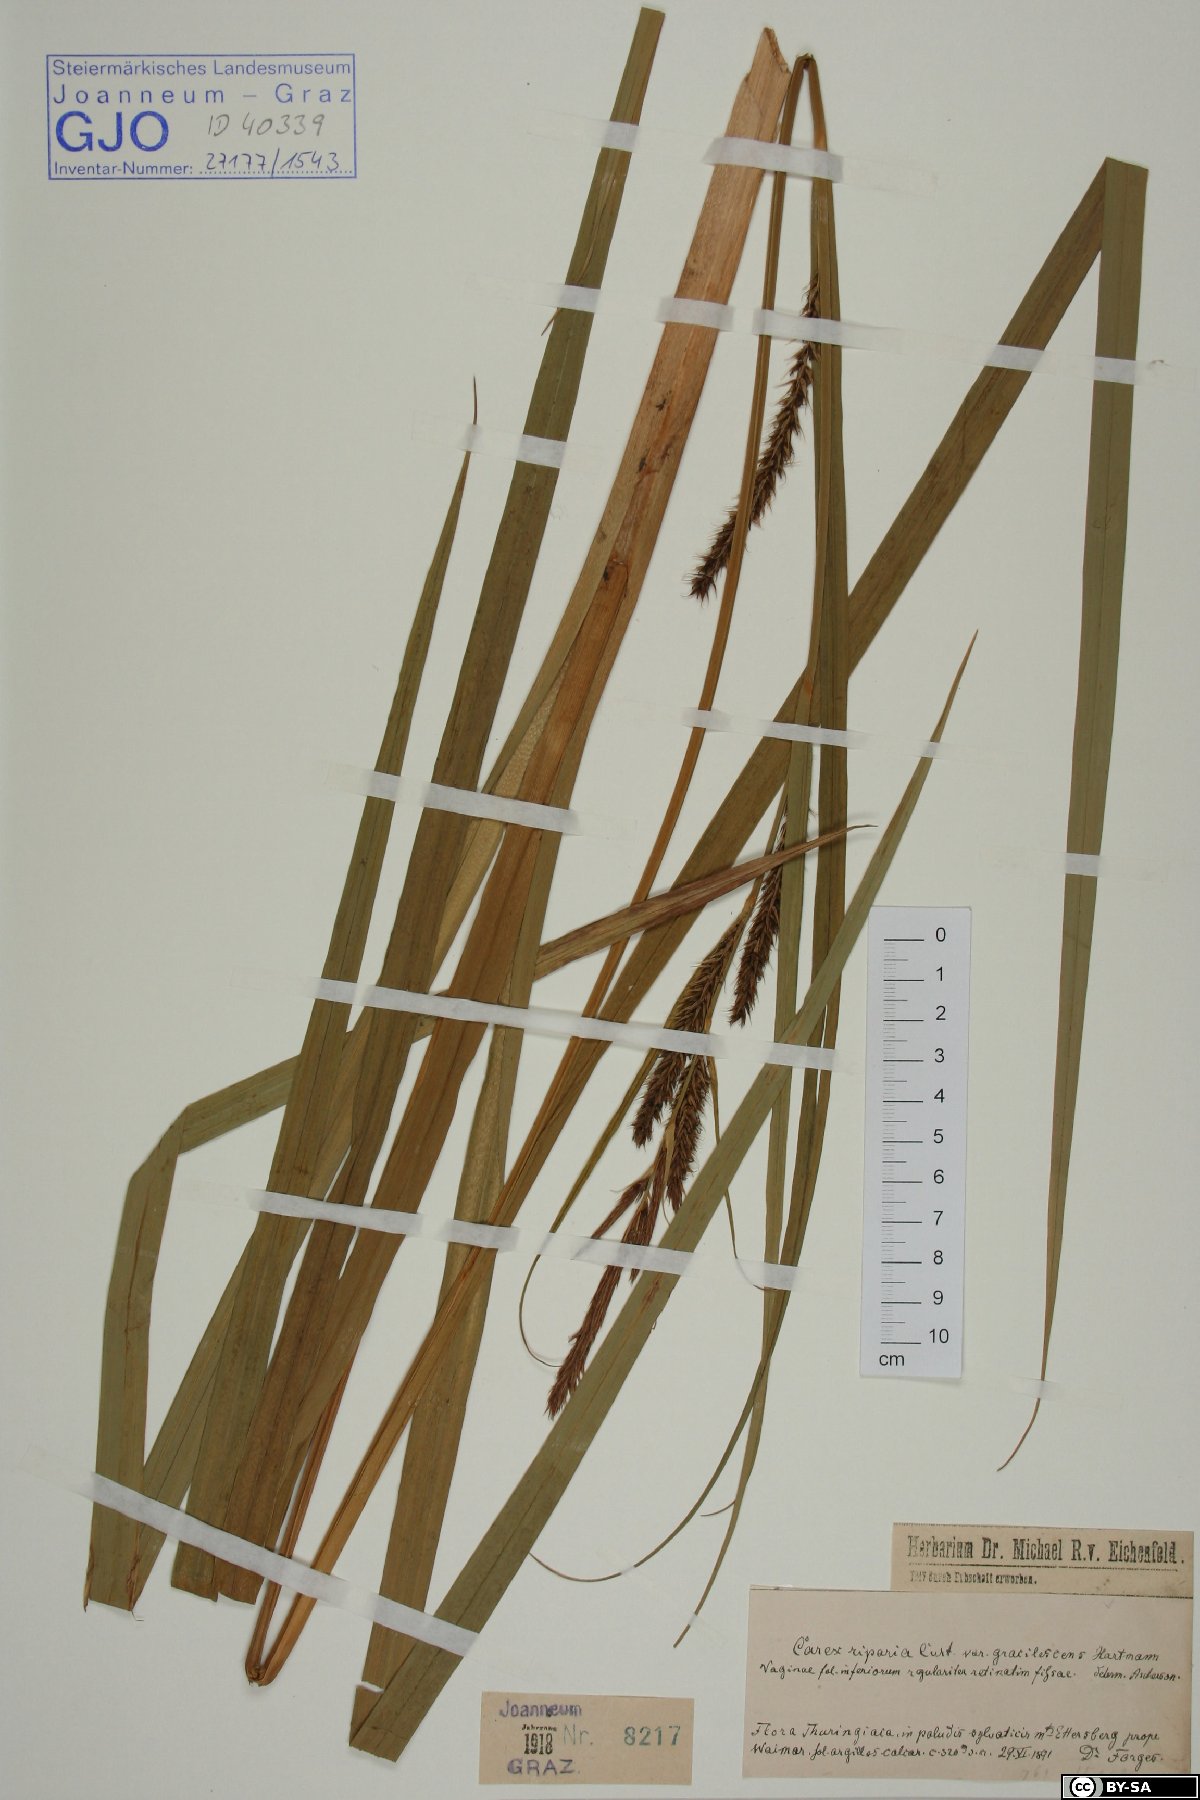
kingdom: Plantae
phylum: Tracheophyta
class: Liliopsida
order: Poales
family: Cyperaceae
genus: Carex
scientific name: Carex riparia
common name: Greater pond-sedge
